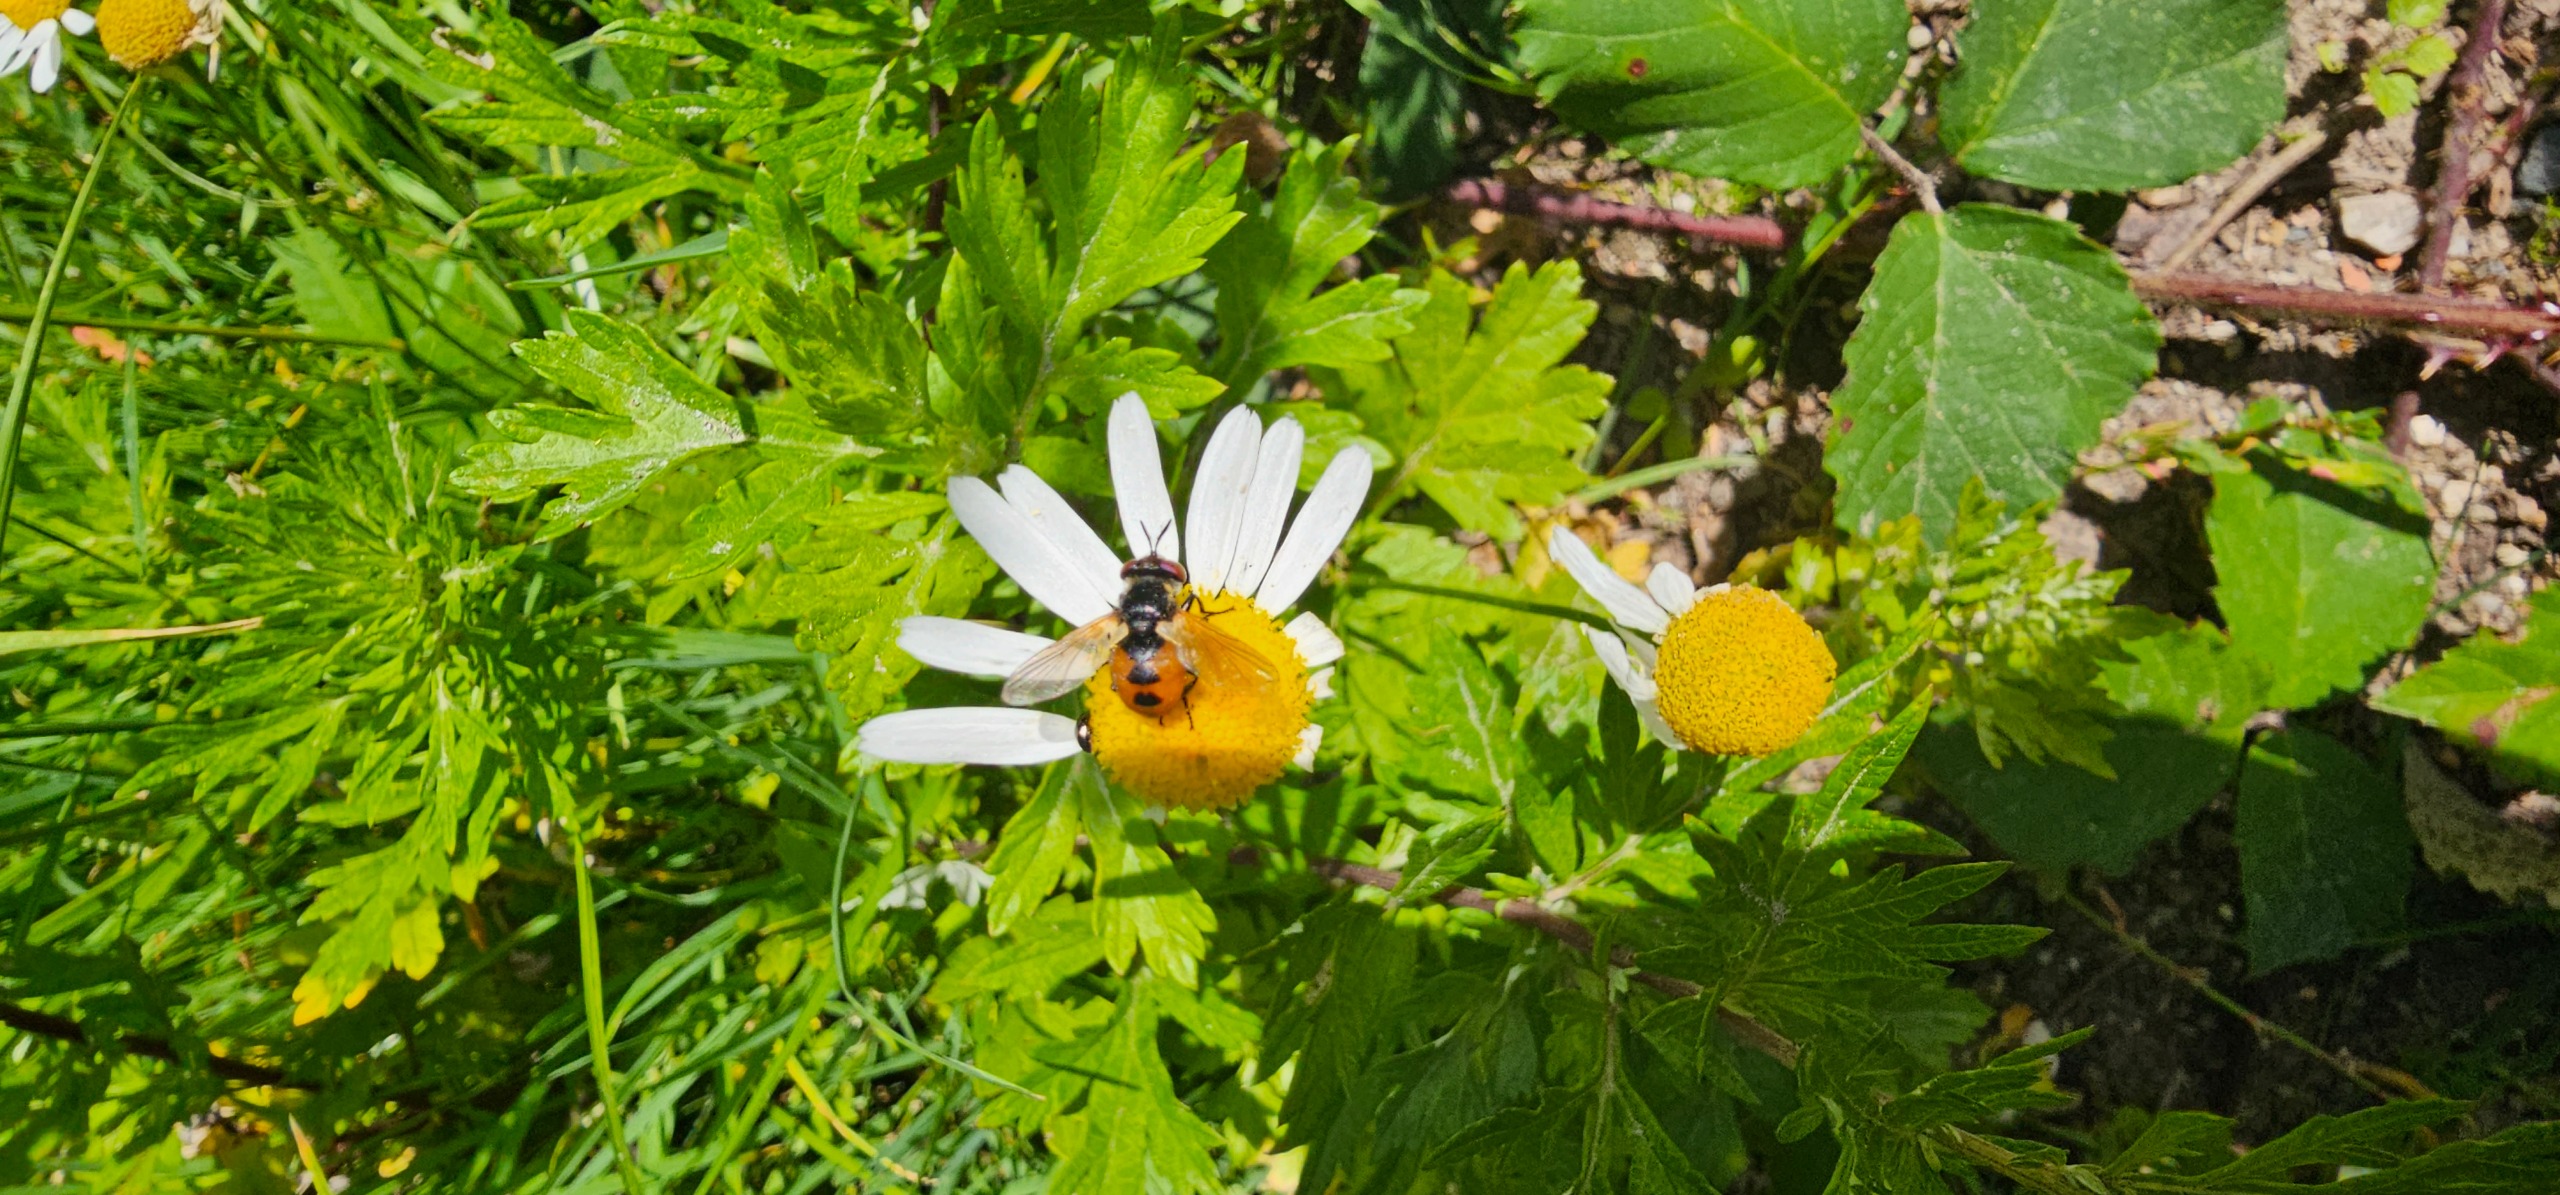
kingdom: Animalia
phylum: Arthropoda
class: Insecta
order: Diptera
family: Tachinidae
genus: Gymnosoma
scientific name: Gymnosoma
